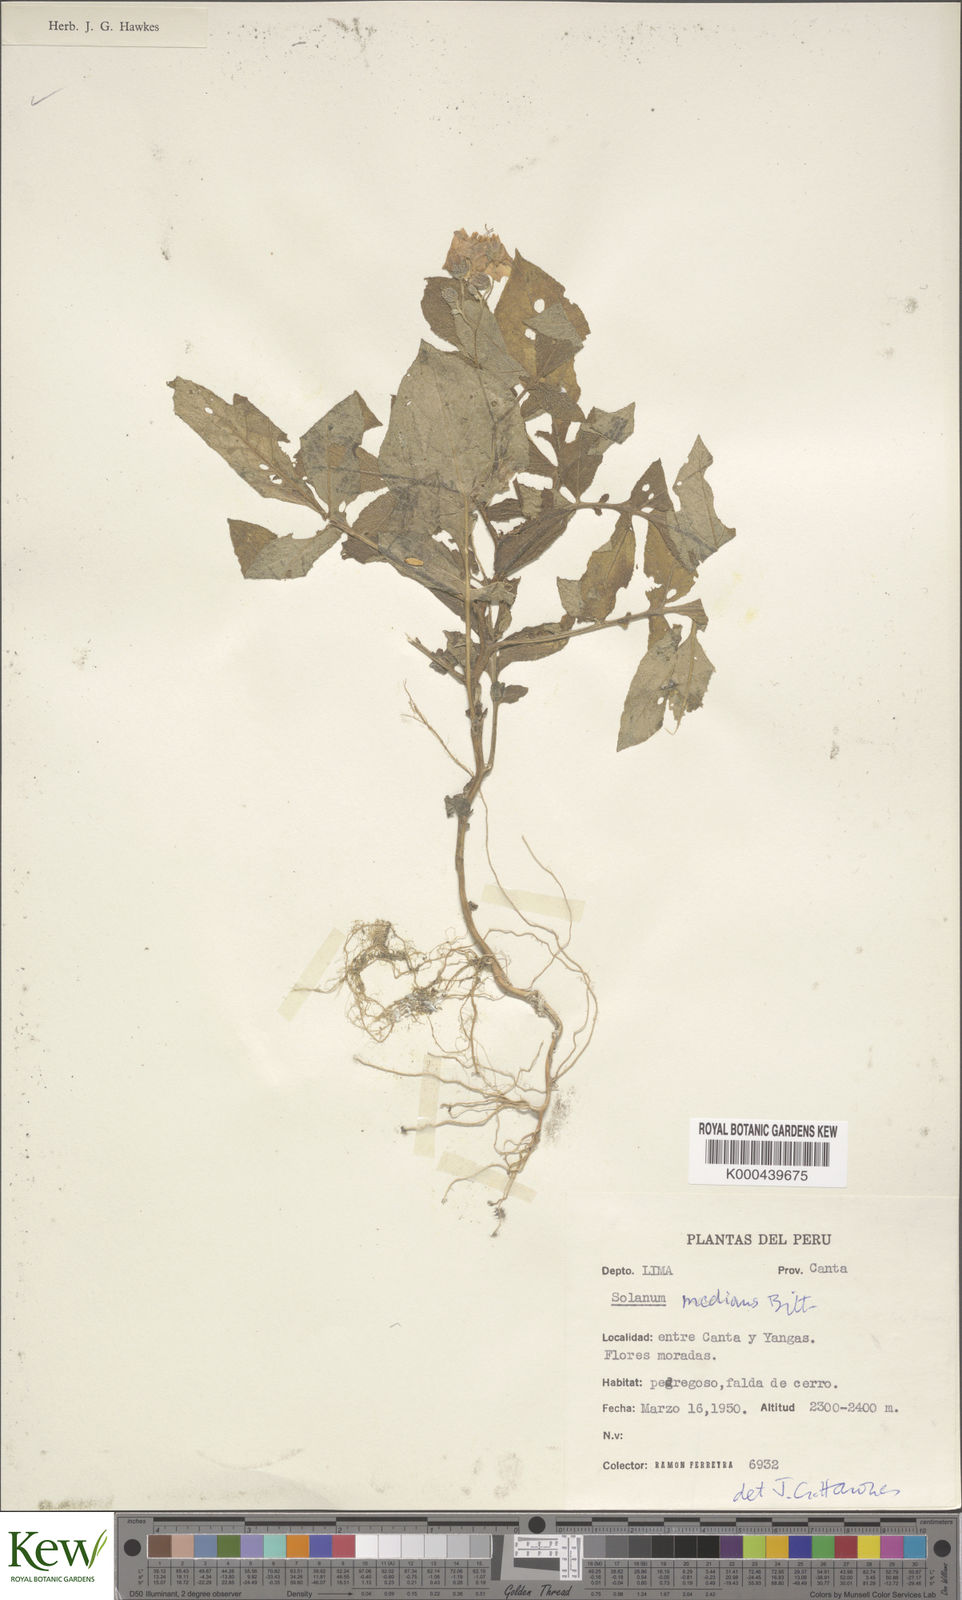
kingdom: Plantae
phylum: Tracheophyta
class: Magnoliopsida
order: Solanales
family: Solanaceae
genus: Solanum
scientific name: Solanum medians
